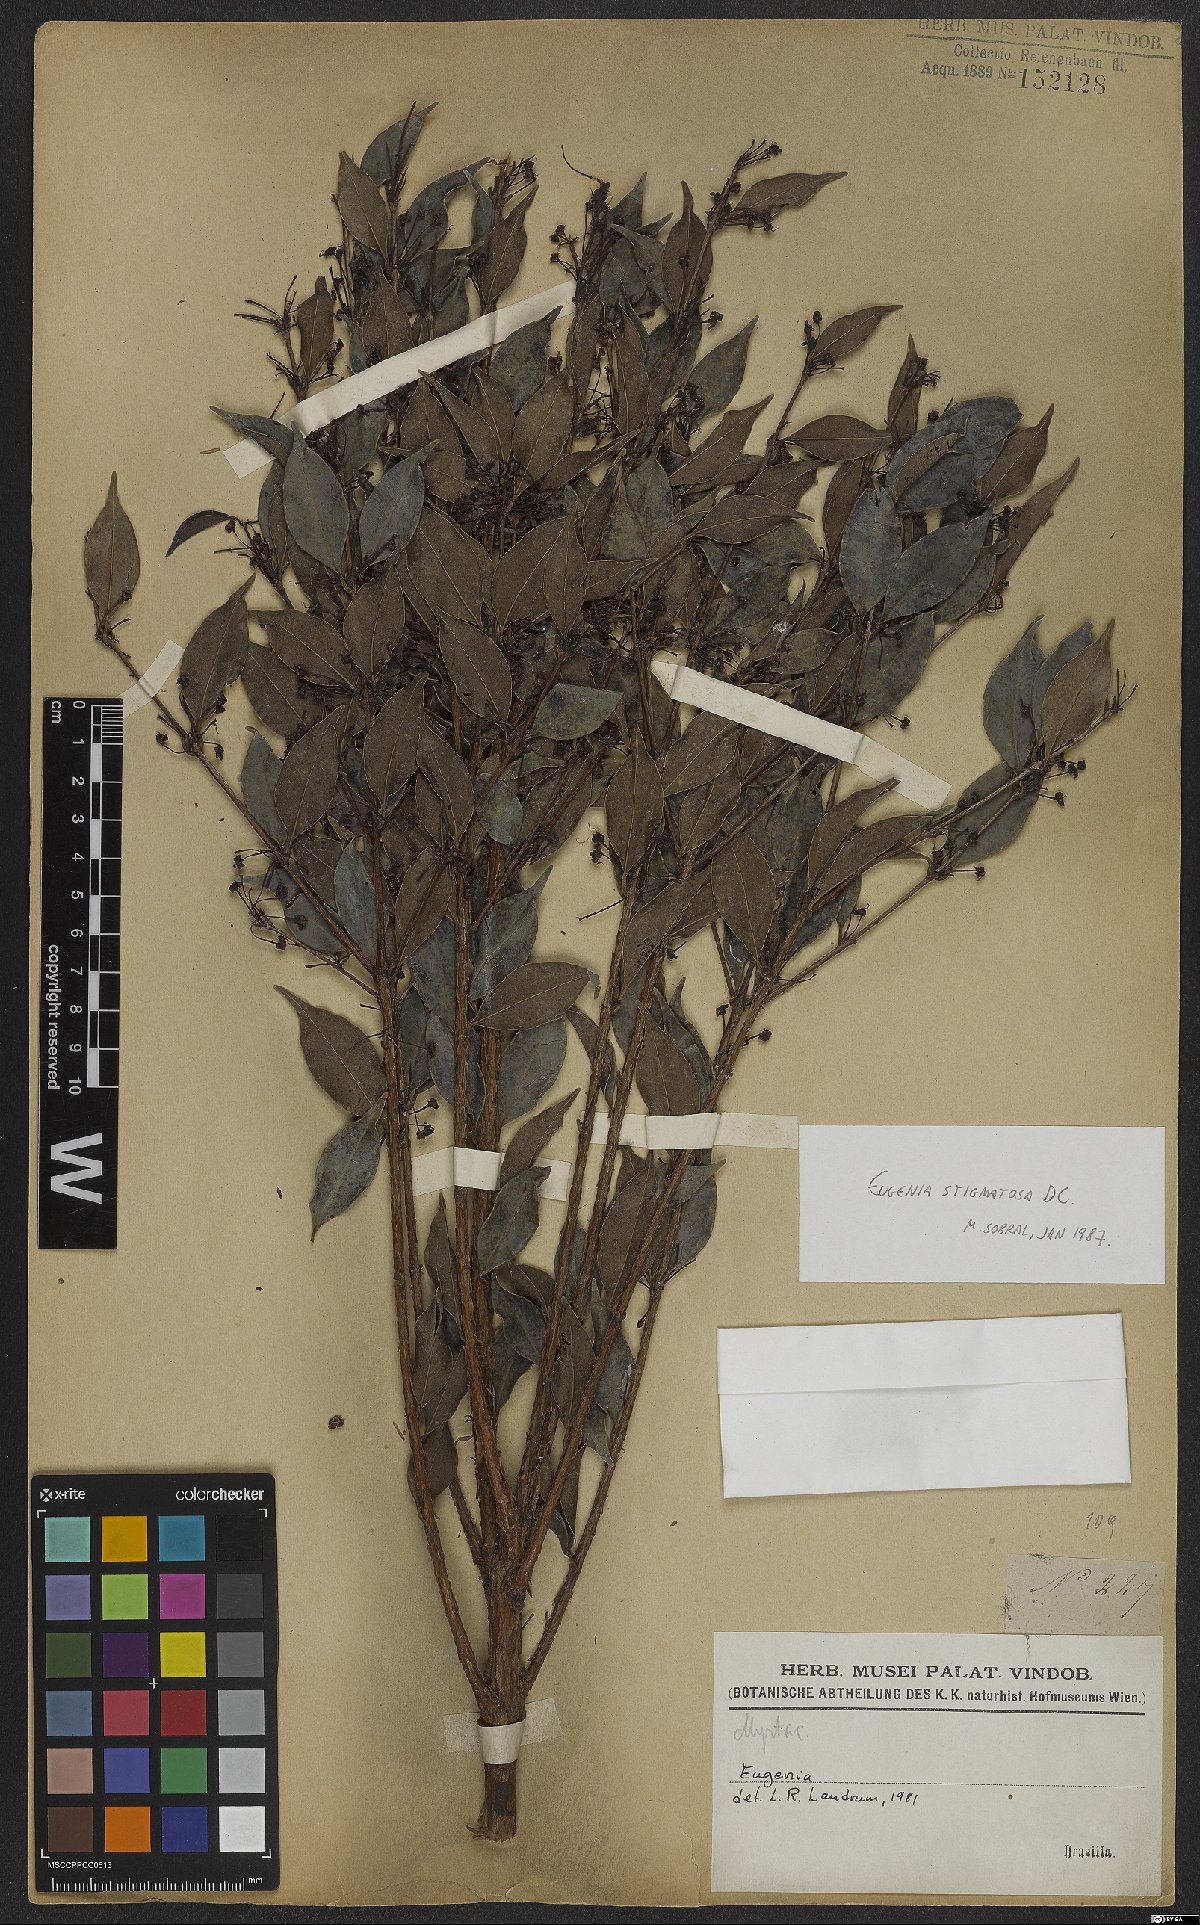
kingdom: Plantae
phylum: Tracheophyta
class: Magnoliopsida
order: Myrtales
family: Myrtaceae
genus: Eugenia
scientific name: Eugenia stigmatosa
